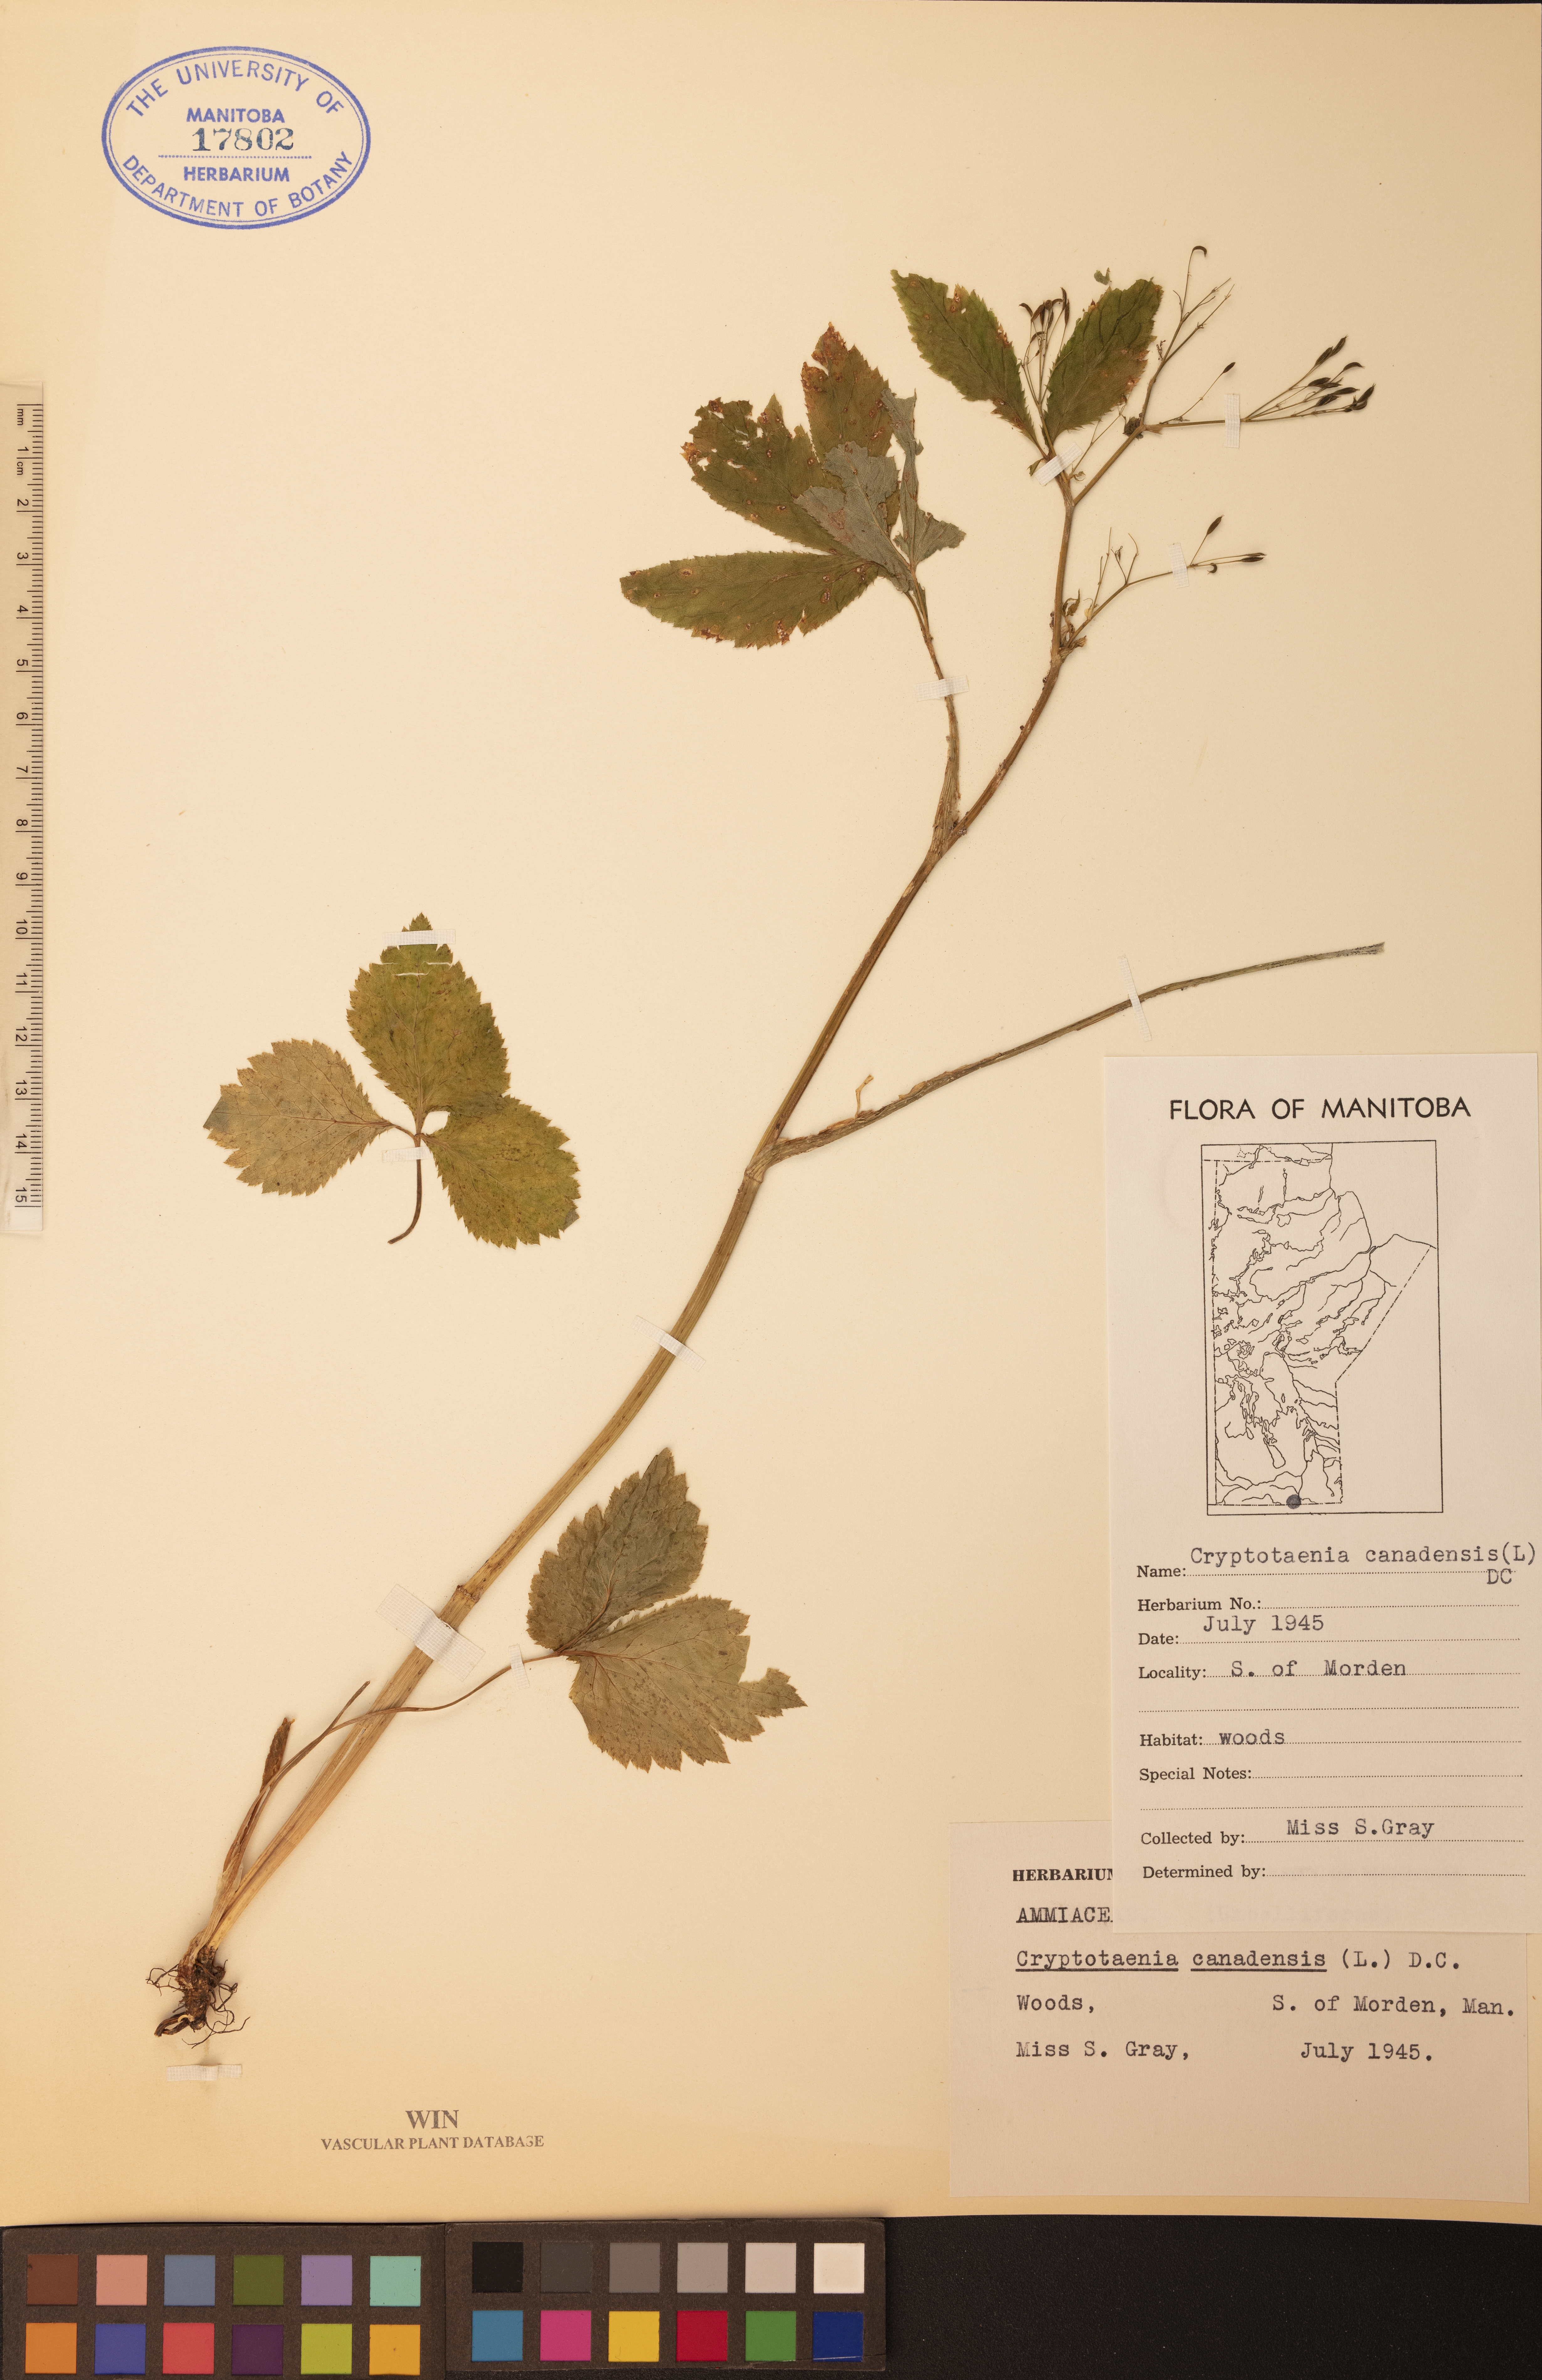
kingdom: Plantae
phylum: Tracheophyta
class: Magnoliopsida
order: Apiales
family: Apiaceae
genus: Cryptotaenia
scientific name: Cryptotaenia canadensis
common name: Honewort
